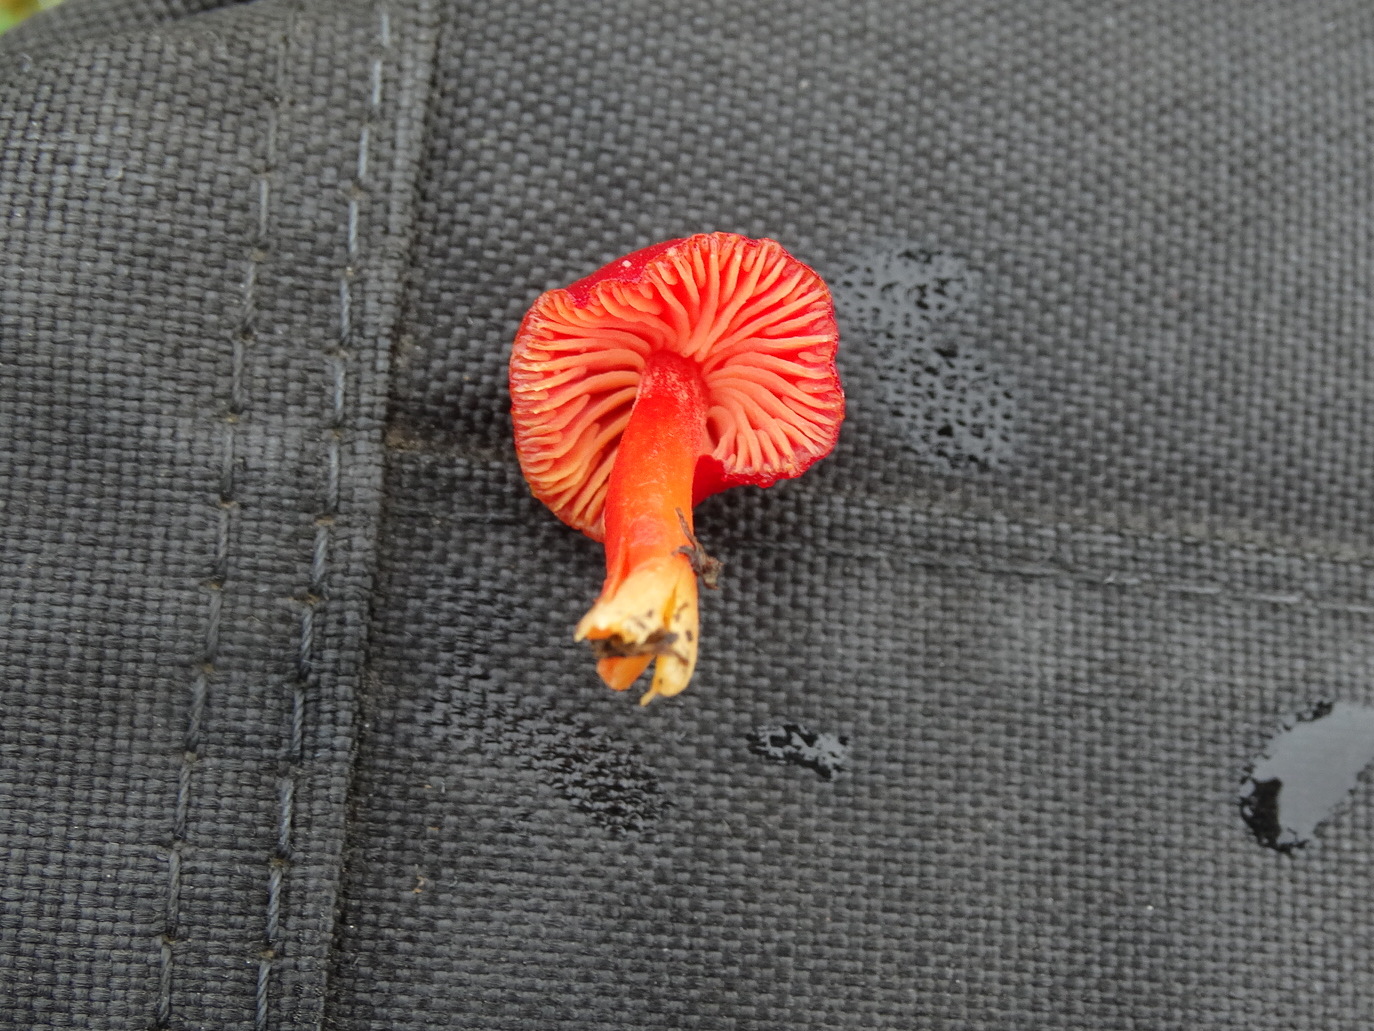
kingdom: Fungi
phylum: Basidiomycota
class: Agaricomycetes
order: Agaricales
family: Hygrophoraceae
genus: Hygrocybe
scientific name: Hygrocybe miniata
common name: mønje-vokshat
